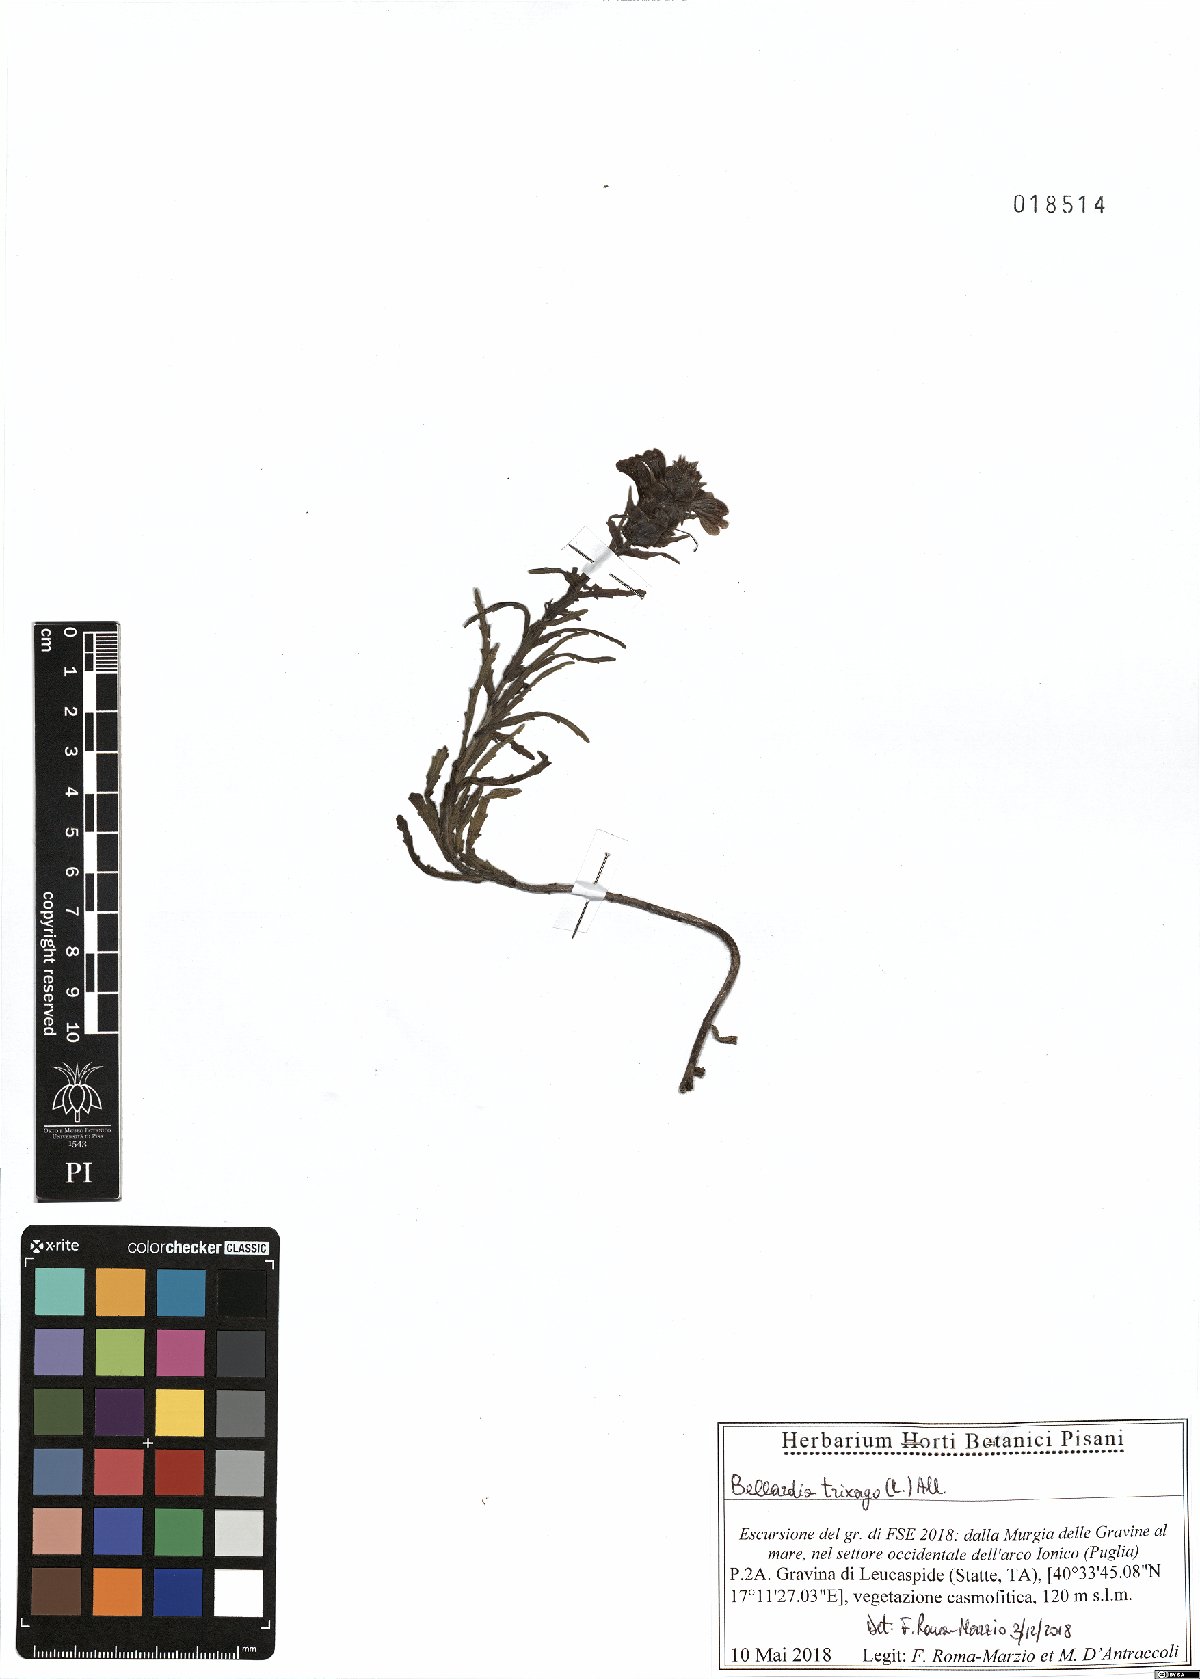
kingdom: Plantae
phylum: Tracheophyta
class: Magnoliopsida
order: Lamiales
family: Orobanchaceae
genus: Bellardia
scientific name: Bellardia trixago
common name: Mediterranean lineseed
